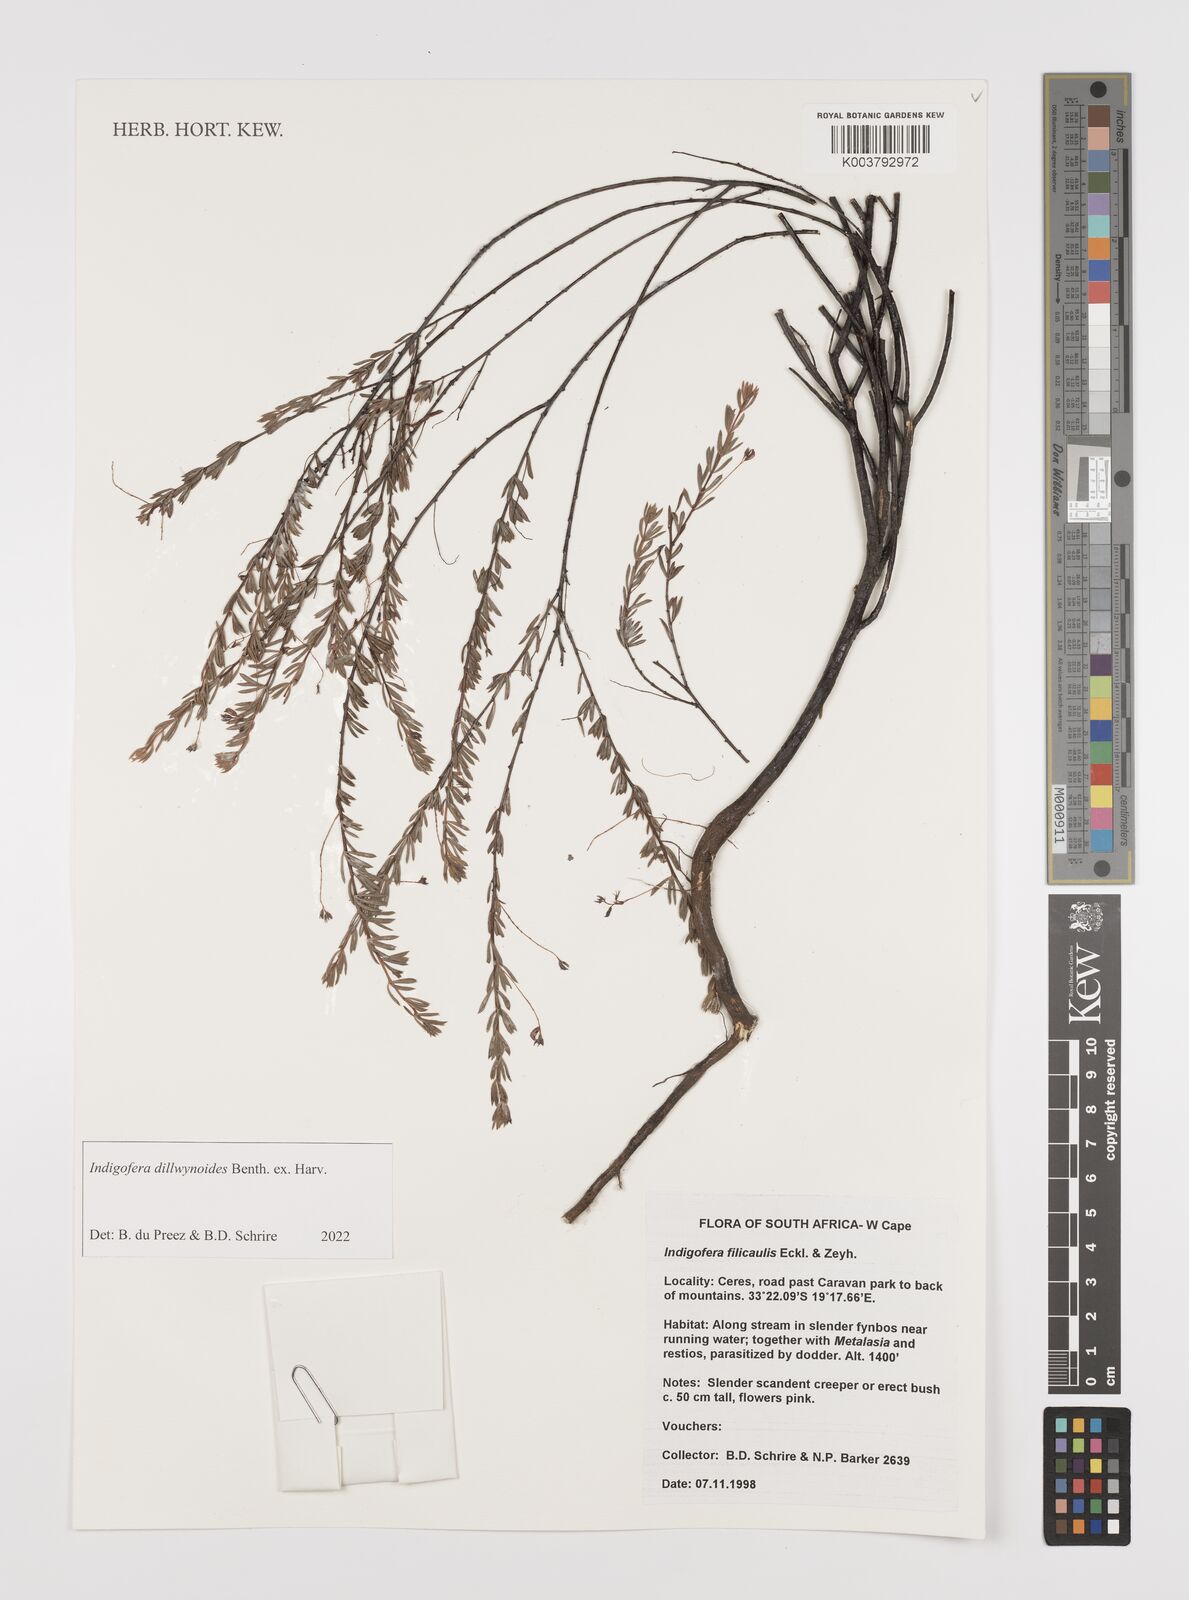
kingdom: Plantae
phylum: Tracheophyta
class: Magnoliopsida
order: Fabales
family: Fabaceae
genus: Indigofera
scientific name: Indigofera dillwynioides
